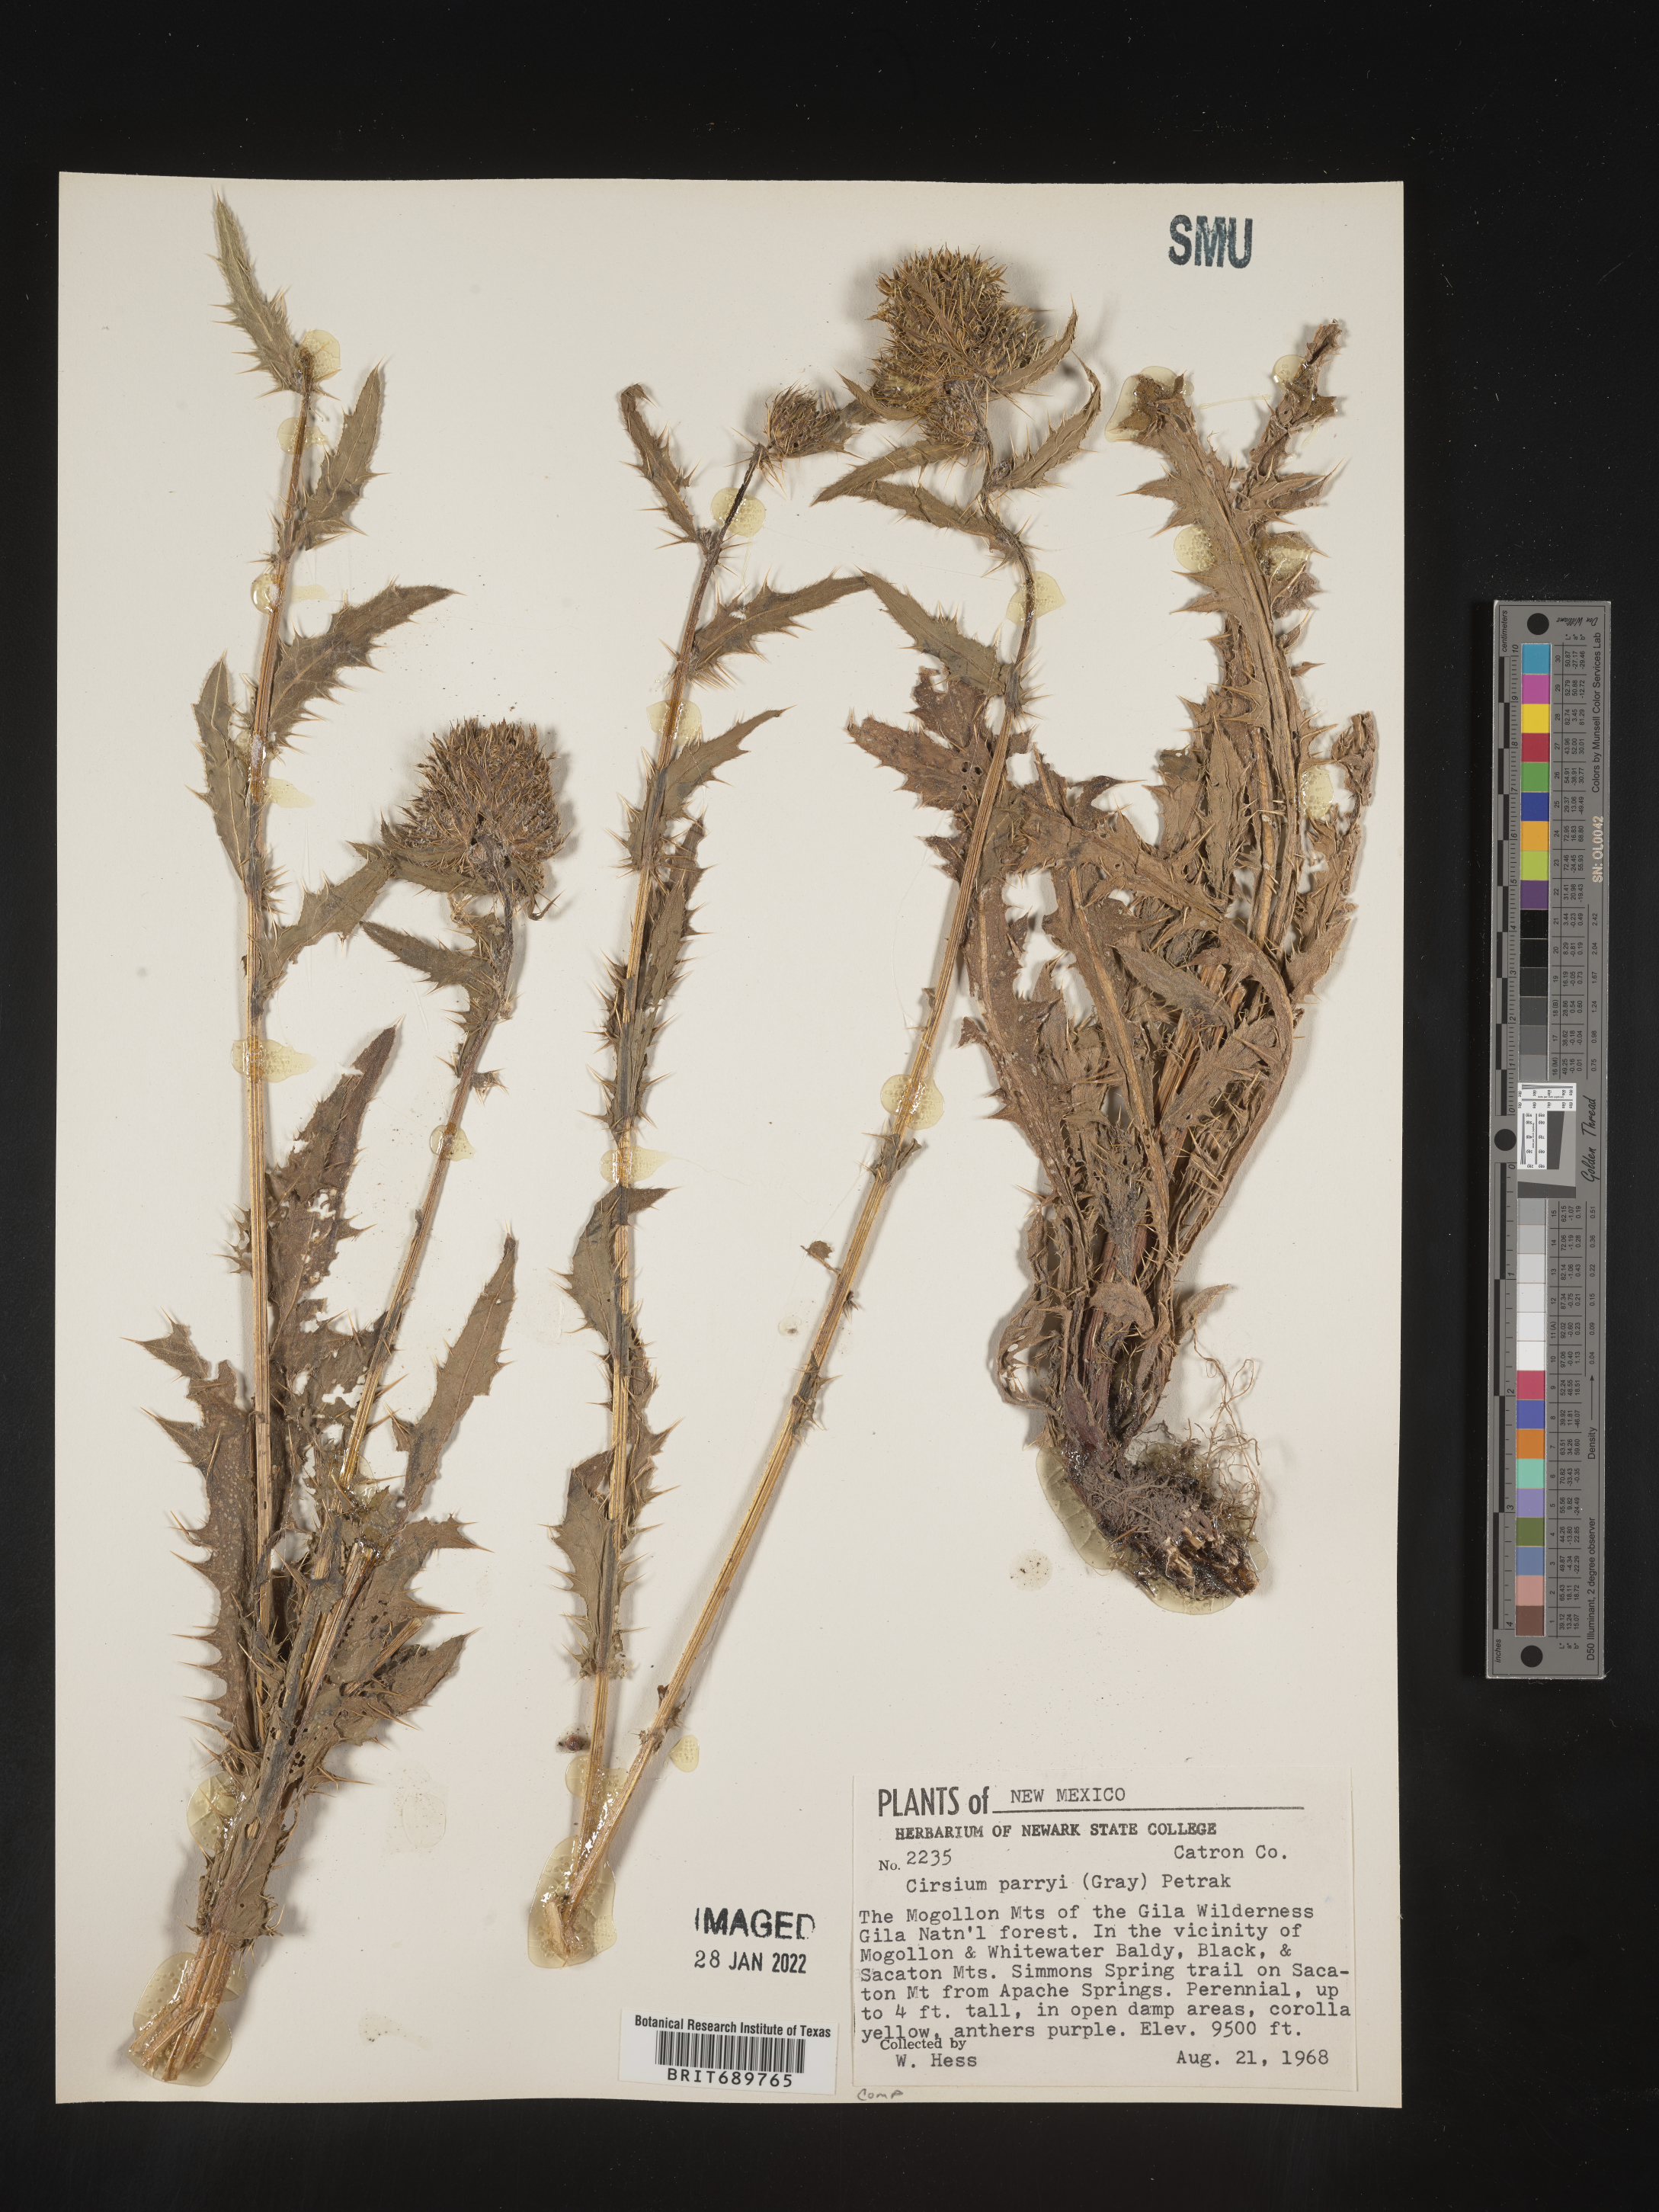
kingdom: Plantae
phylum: Tracheophyta
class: Magnoliopsida
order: Asterales
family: Asteraceae
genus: Cirsium
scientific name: Cirsium parryi
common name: Parry's thistle
